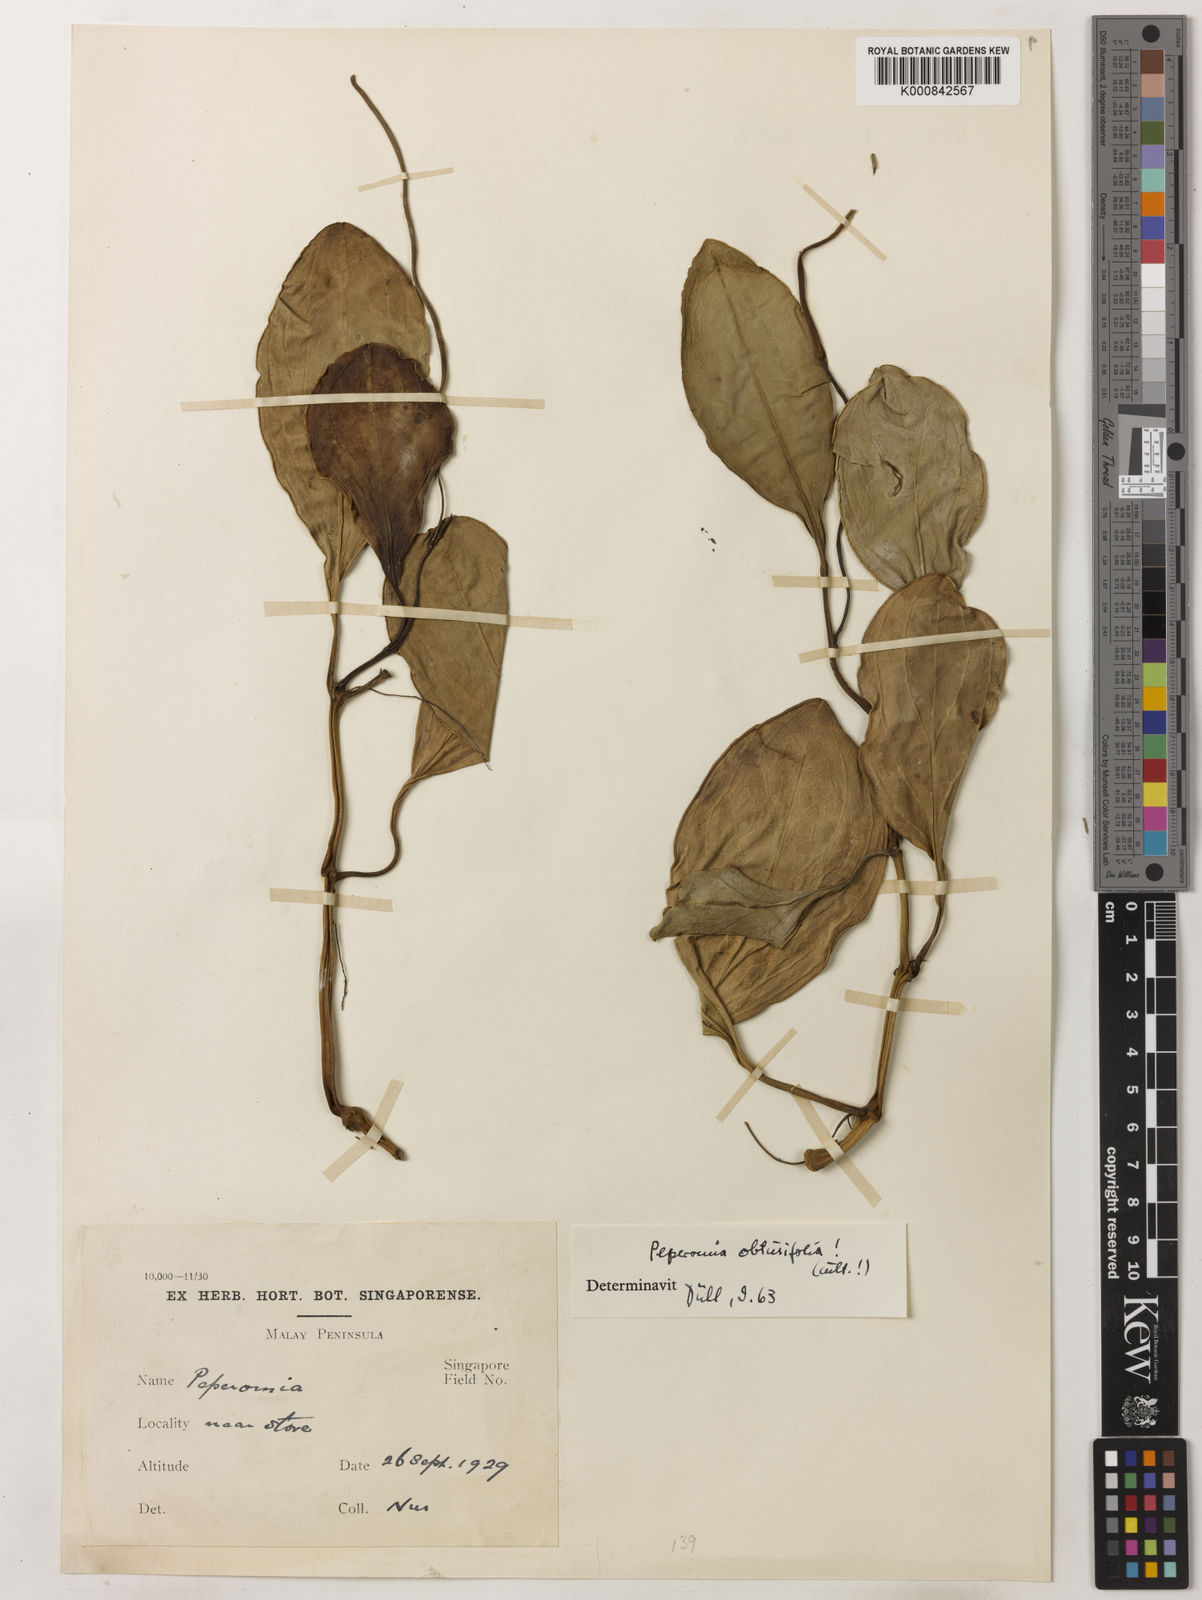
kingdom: Plantae
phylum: Tracheophyta
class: Magnoliopsida
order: Piperales
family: Piperaceae
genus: Peperomia
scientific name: Peperomia obtusifolia
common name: Baby rubberplant
